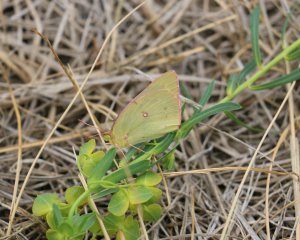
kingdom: Animalia
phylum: Arthropoda
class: Insecta
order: Lepidoptera
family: Pieridae
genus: Colias
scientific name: Colias philodice
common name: Clouded Sulphur
